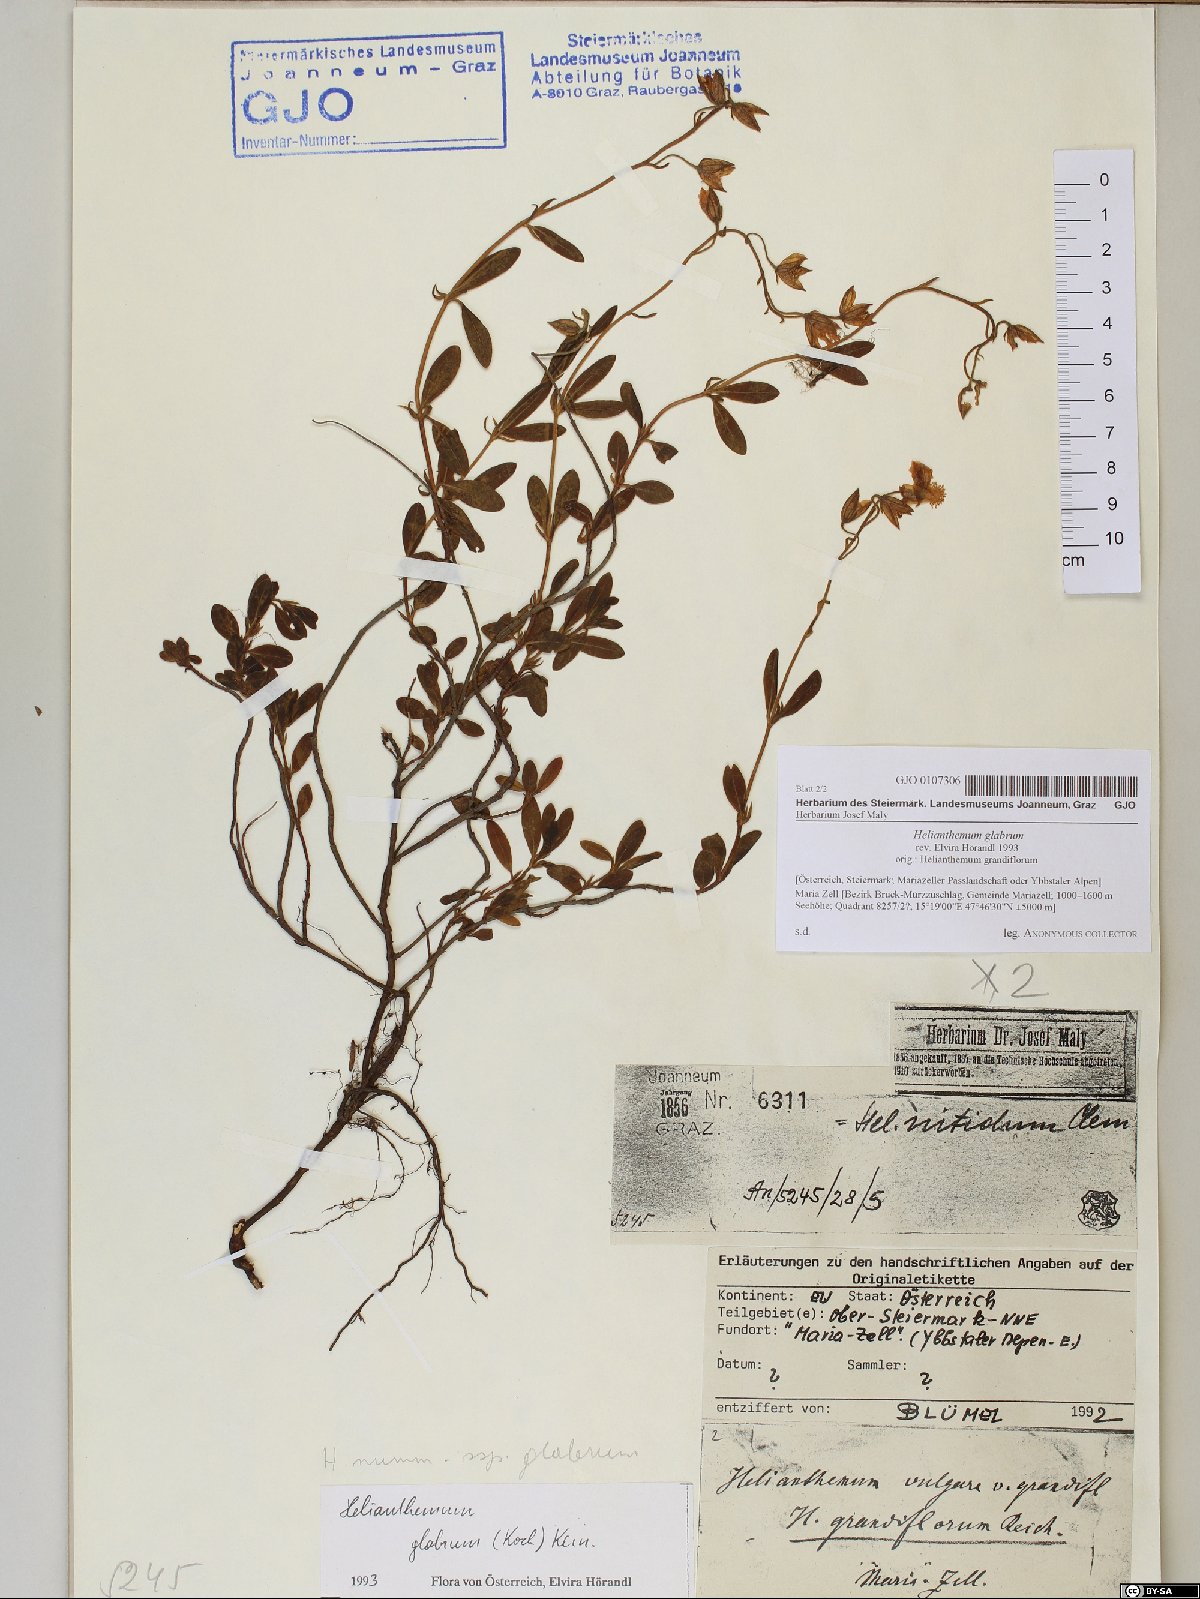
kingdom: Plantae
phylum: Tracheophyta
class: Magnoliopsida
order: Malvales
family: Cistaceae
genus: Helianthemum
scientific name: Helianthemum nummularium
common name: Common rock-rose
